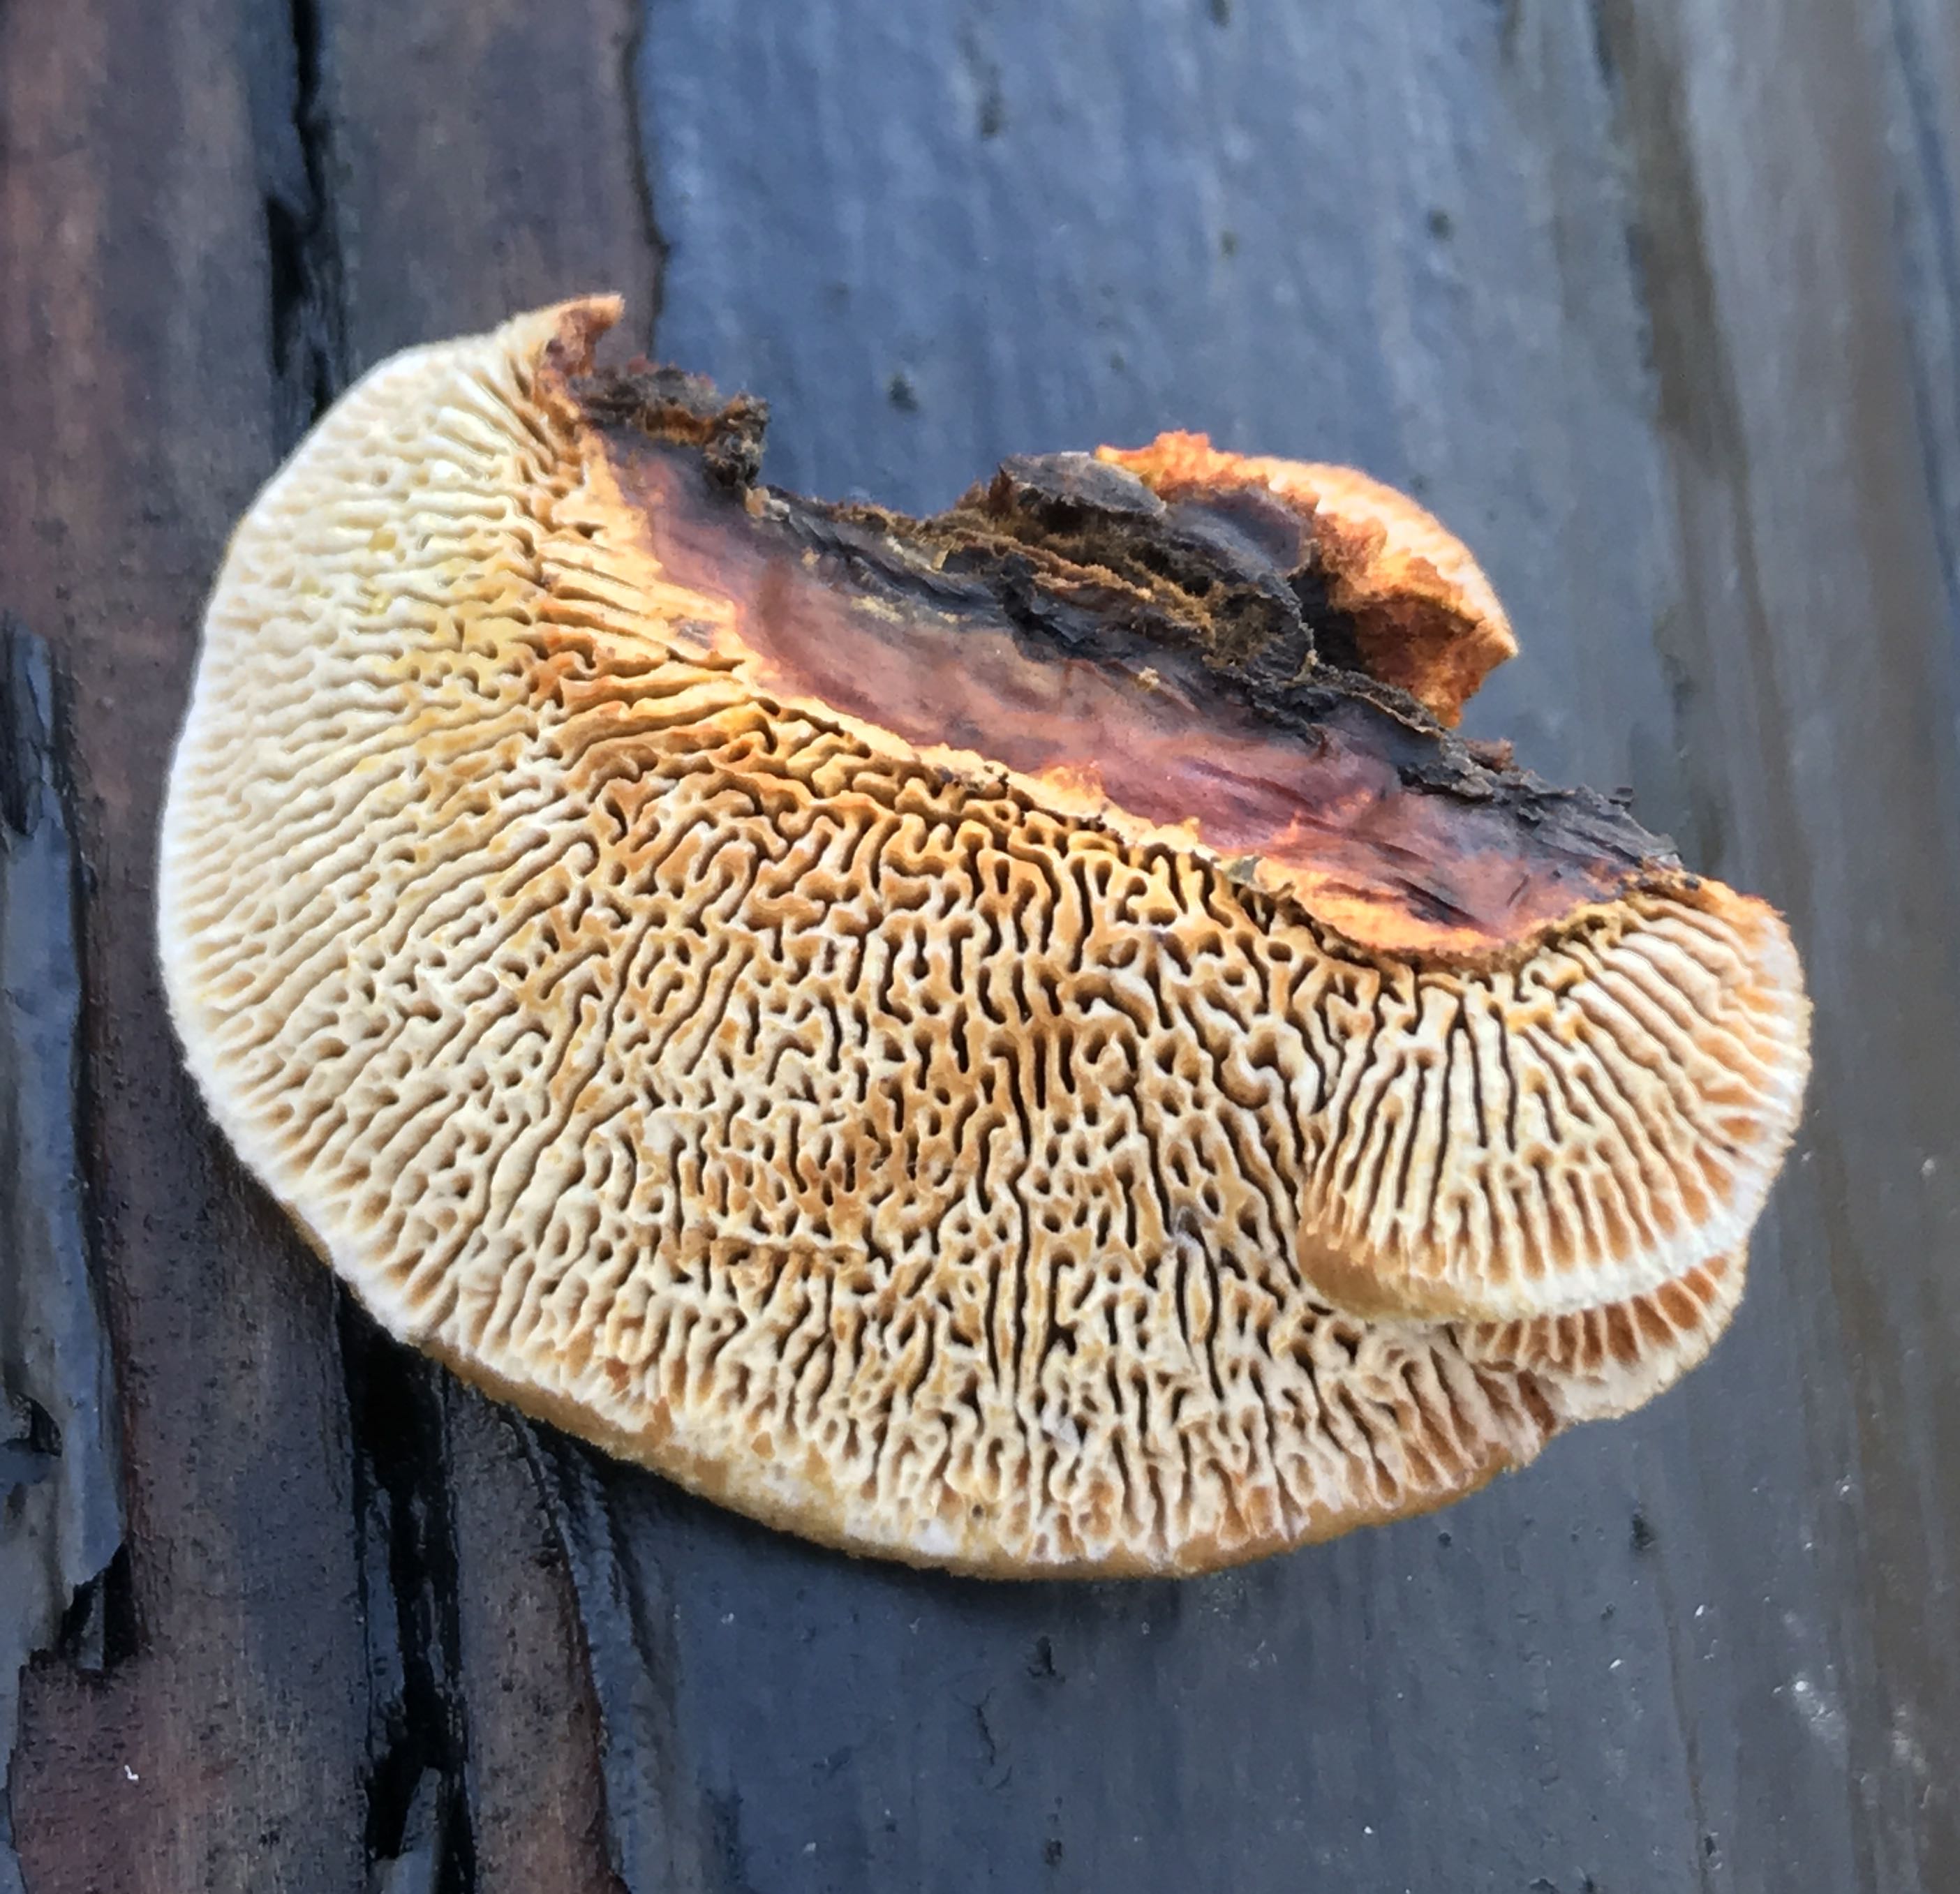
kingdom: Fungi
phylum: Basidiomycota
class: Agaricomycetes
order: Gloeophyllales
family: Gloeophyllaceae
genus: Gloeophyllum
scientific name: Gloeophyllum sepiarium
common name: fyrre-korkhat
